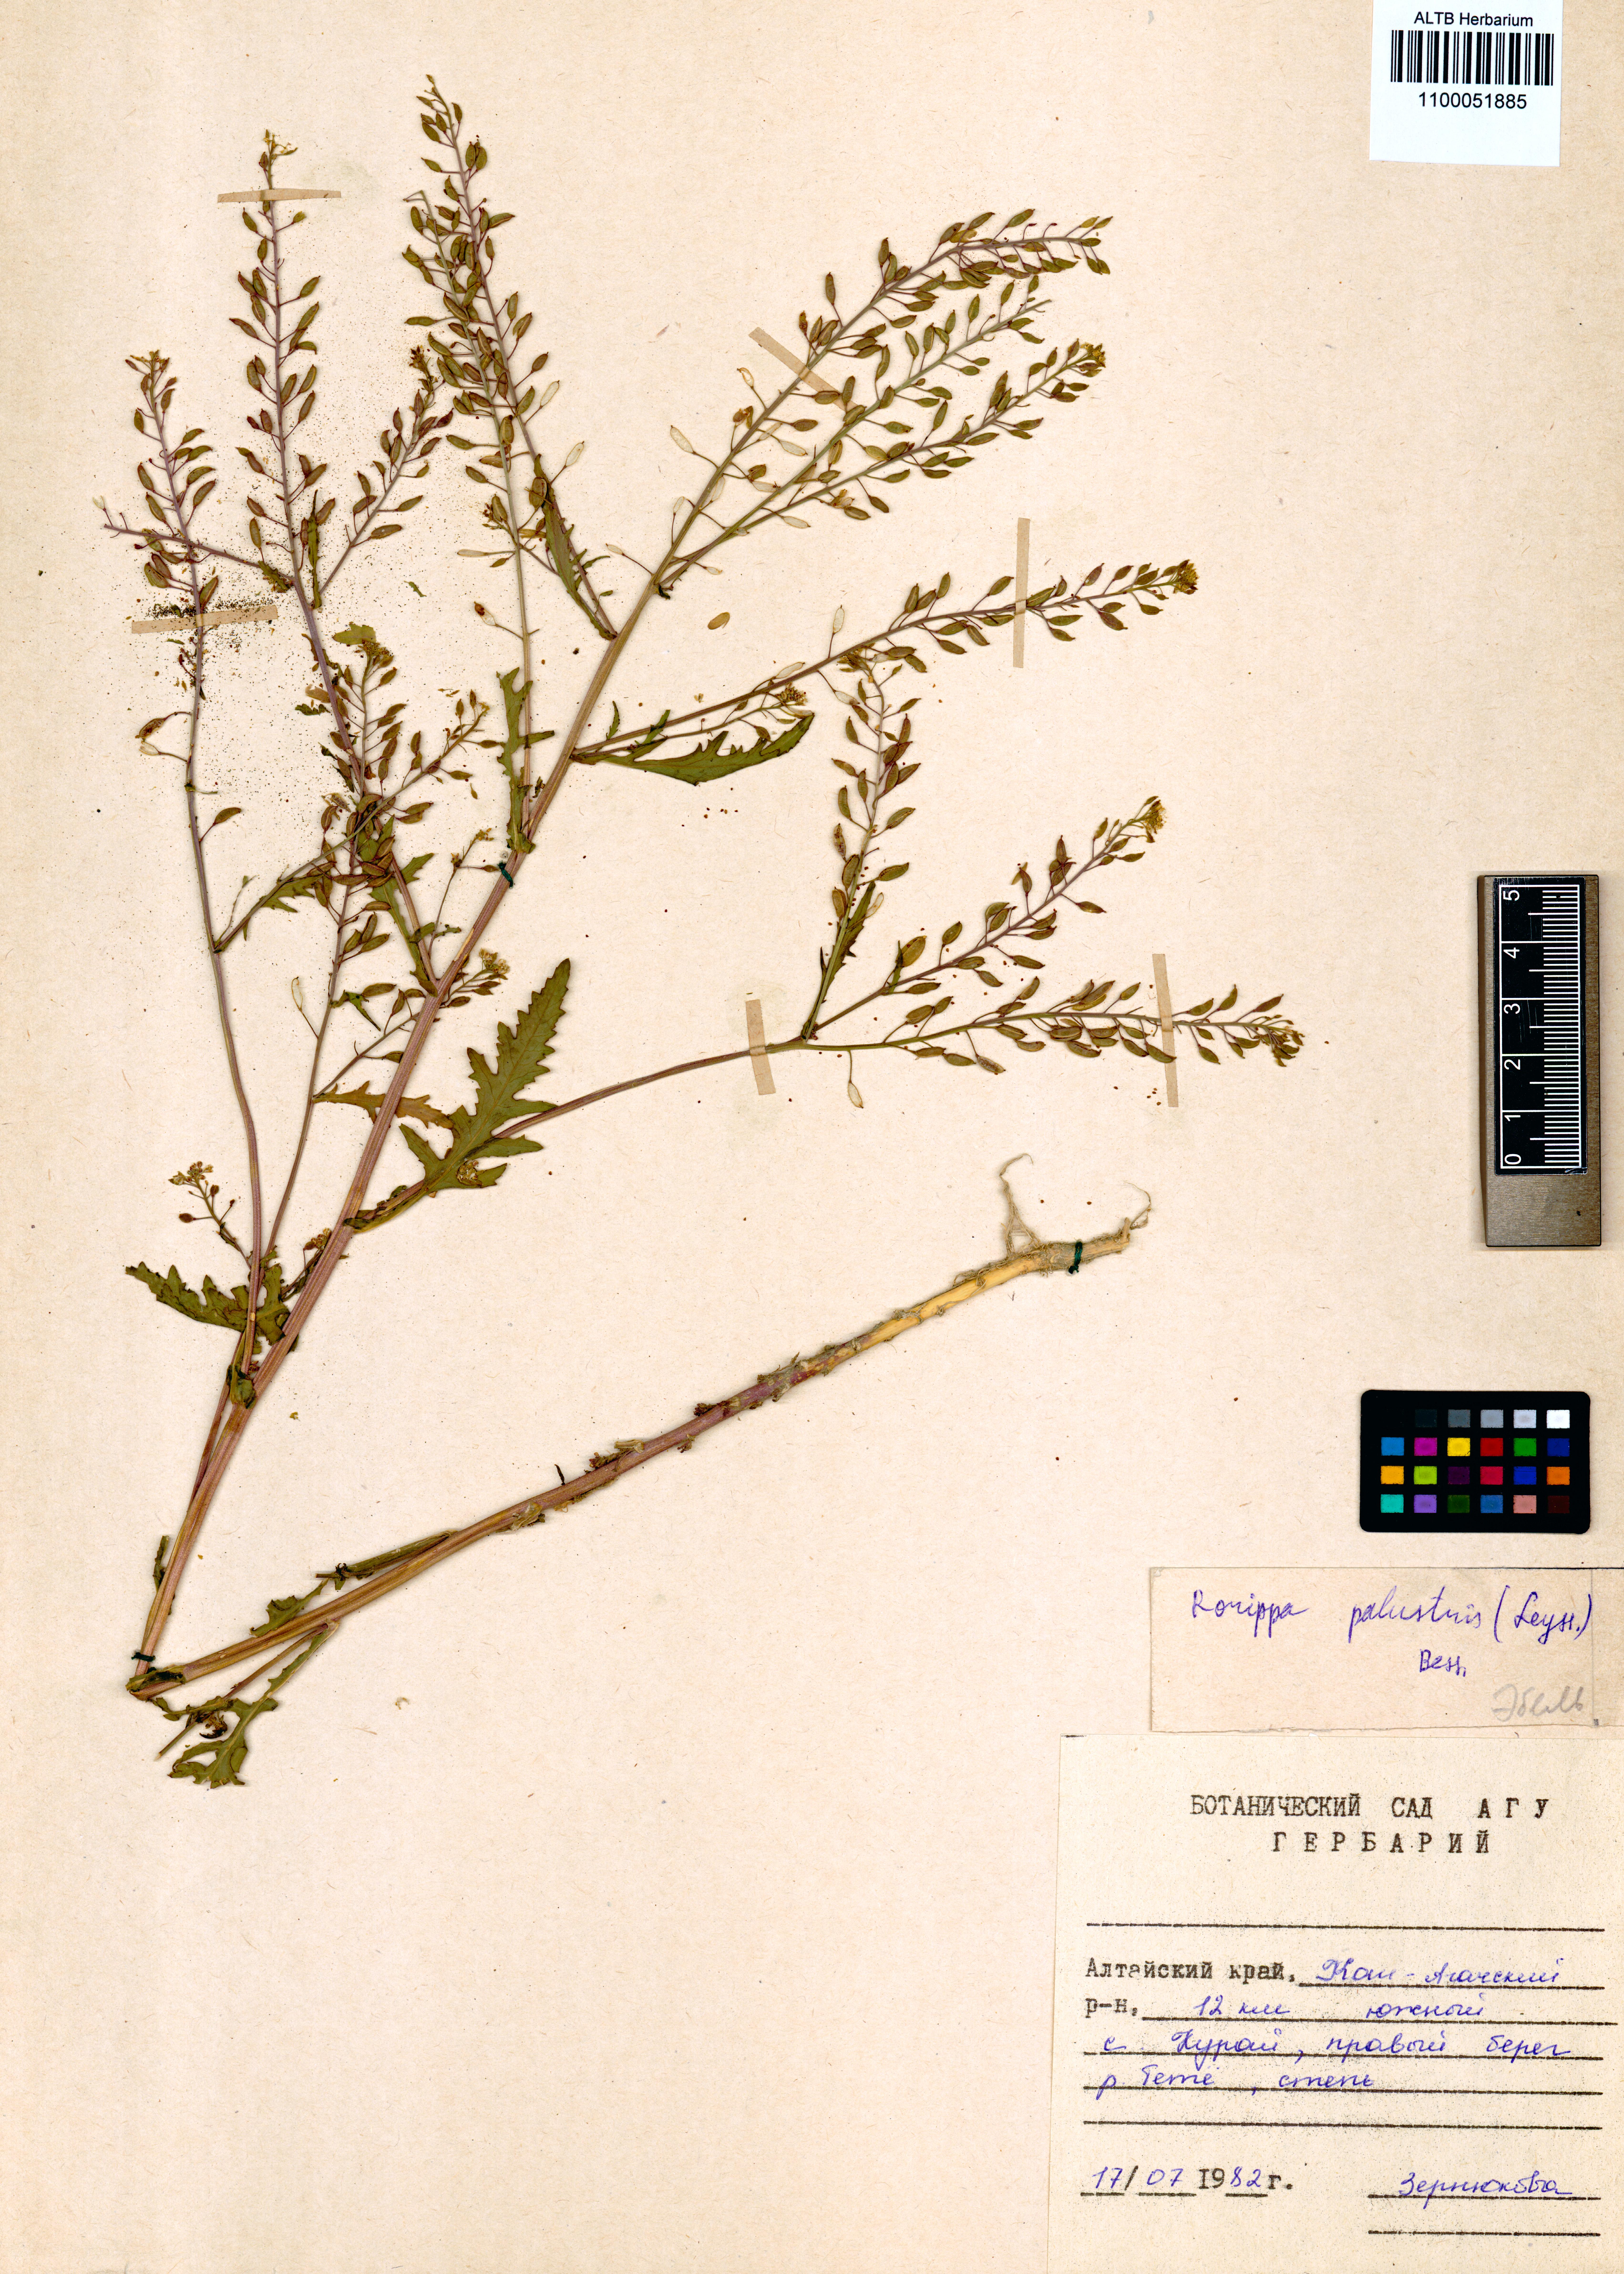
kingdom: Plantae
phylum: Tracheophyta
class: Magnoliopsida
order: Brassicales
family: Brassicaceae
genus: Rorippa
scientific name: Rorippa palustris
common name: Marsh yellow-cress
